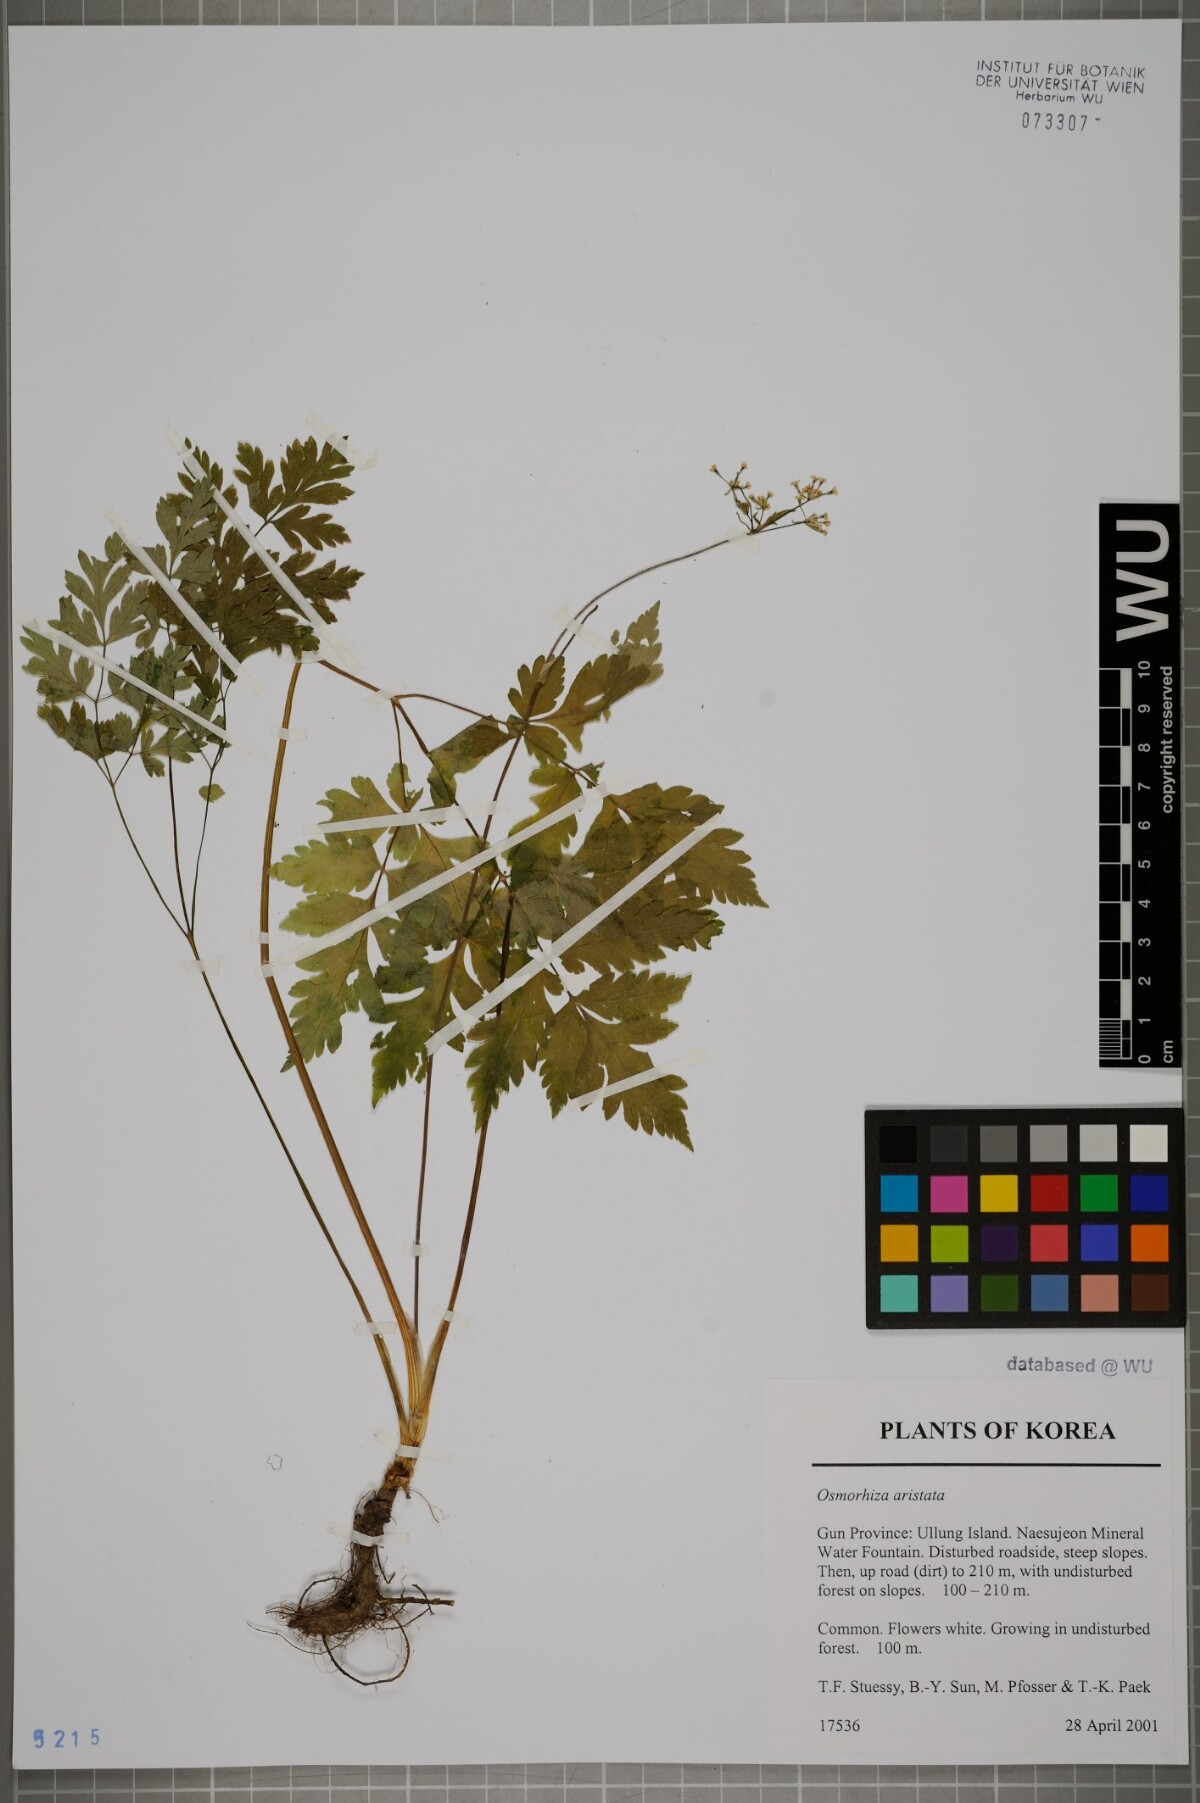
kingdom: Plantae
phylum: Tracheophyta
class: Magnoliopsida
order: Apiales
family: Apiaceae
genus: Osmorhiza
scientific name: Osmorhiza aristata
